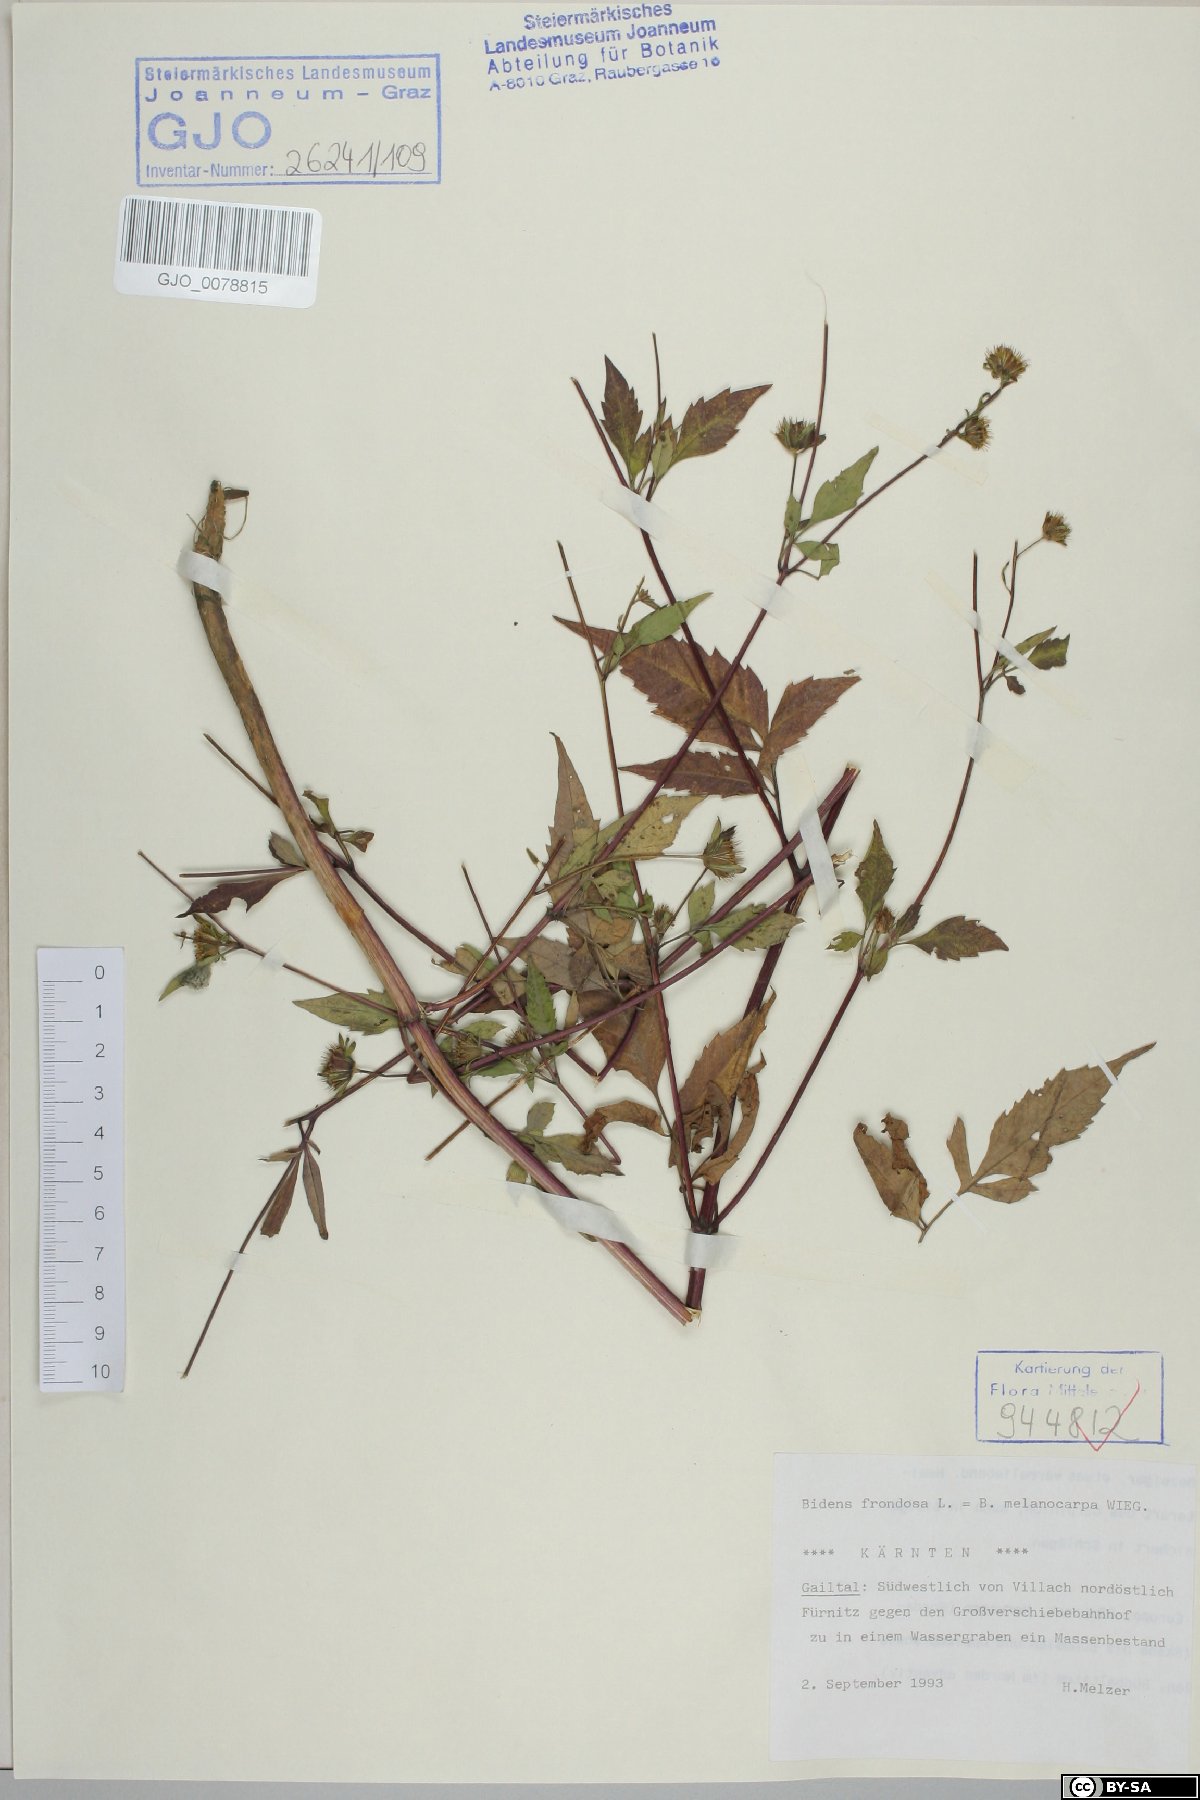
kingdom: Plantae
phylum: Tracheophyta
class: Magnoliopsida
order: Asterales
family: Asteraceae
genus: Bidens
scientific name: Bidens frondosa
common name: Beggarticks
